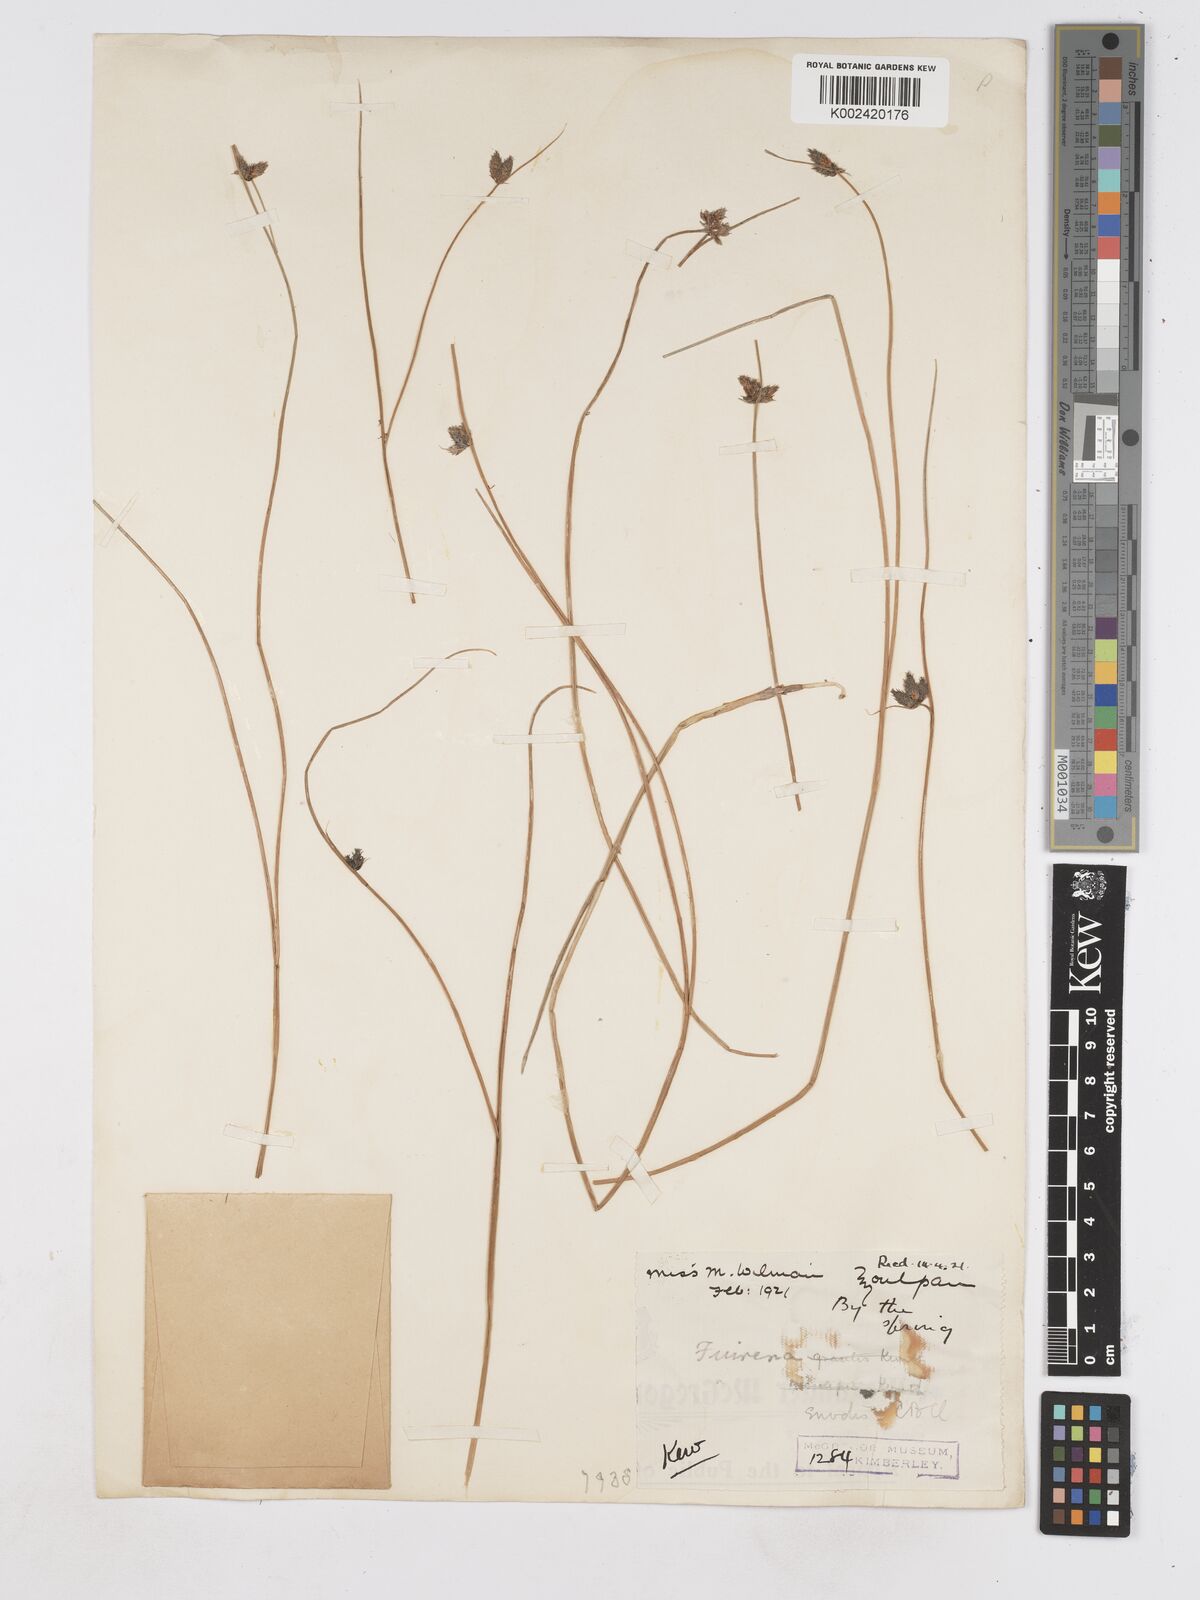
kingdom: Plantae
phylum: Tracheophyta
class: Liliopsida
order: Poales
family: Cyperaceae
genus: Fuirena
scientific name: Fuirena coerulescens
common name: Blue umbrella-sedge
